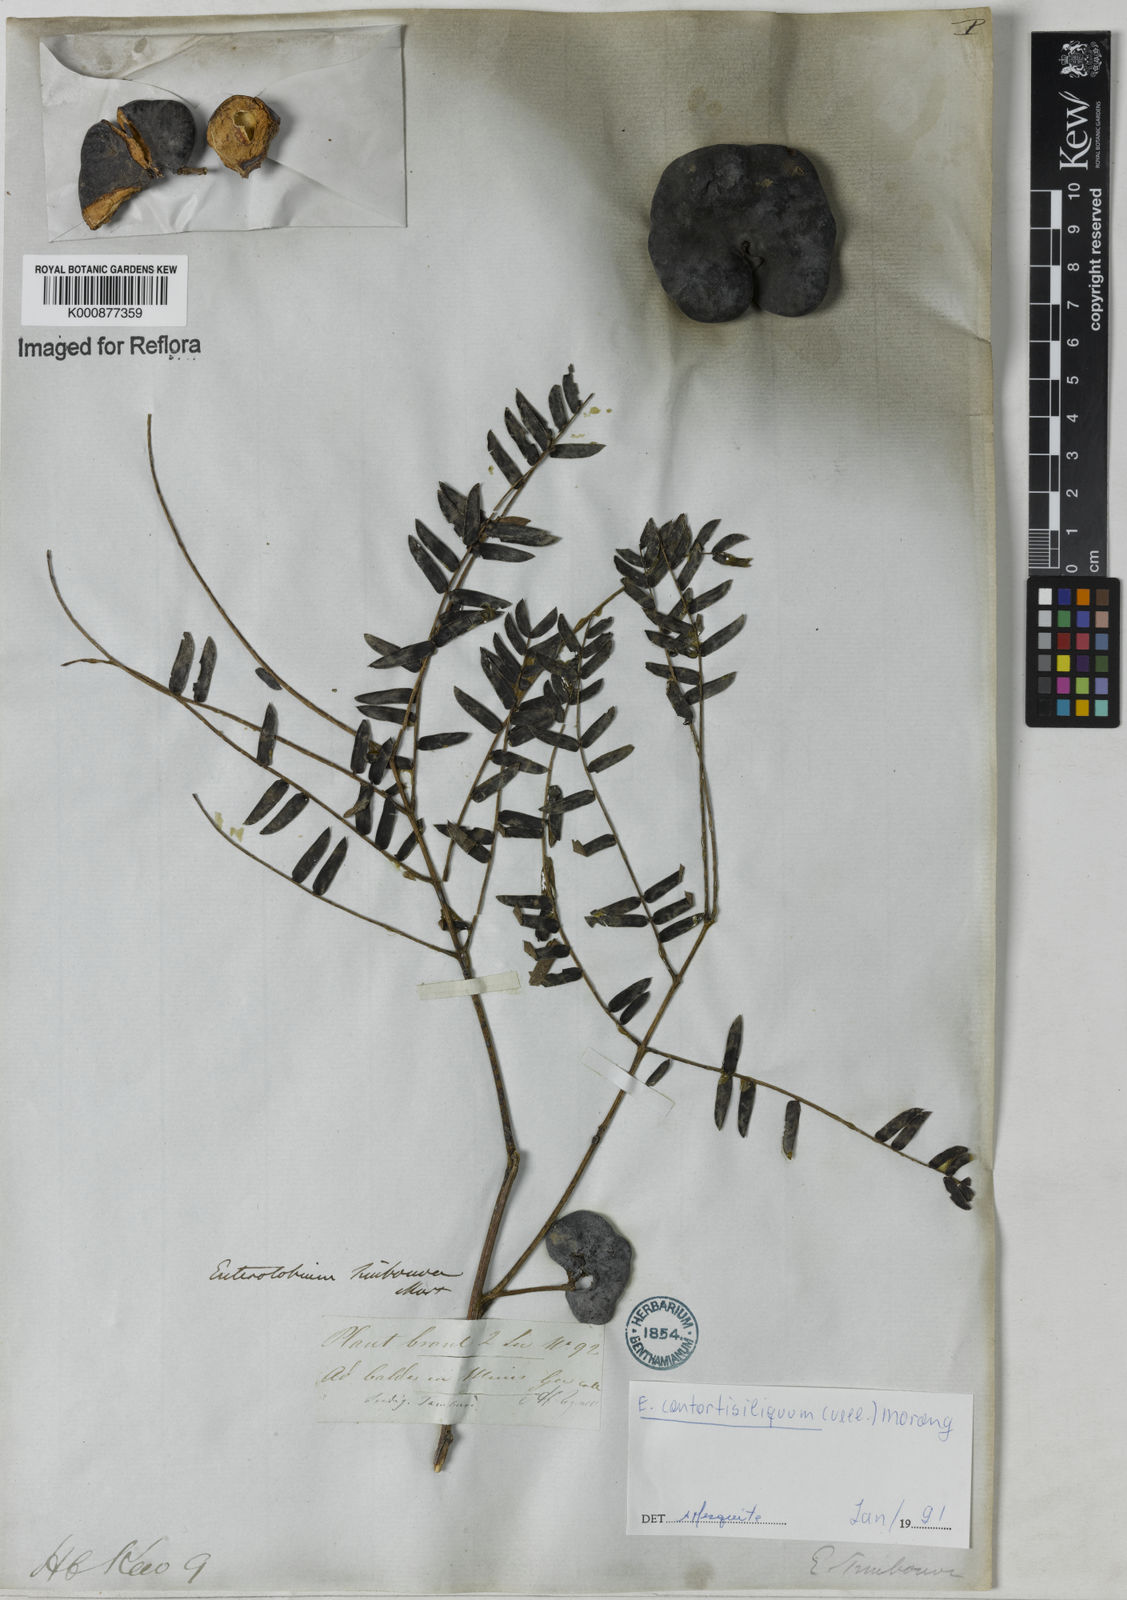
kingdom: Plantae
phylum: Tracheophyta
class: Magnoliopsida
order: Fabales
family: Fabaceae
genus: Enterolobium
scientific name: Enterolobium contortisiliquum
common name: Pacara earpod tree
